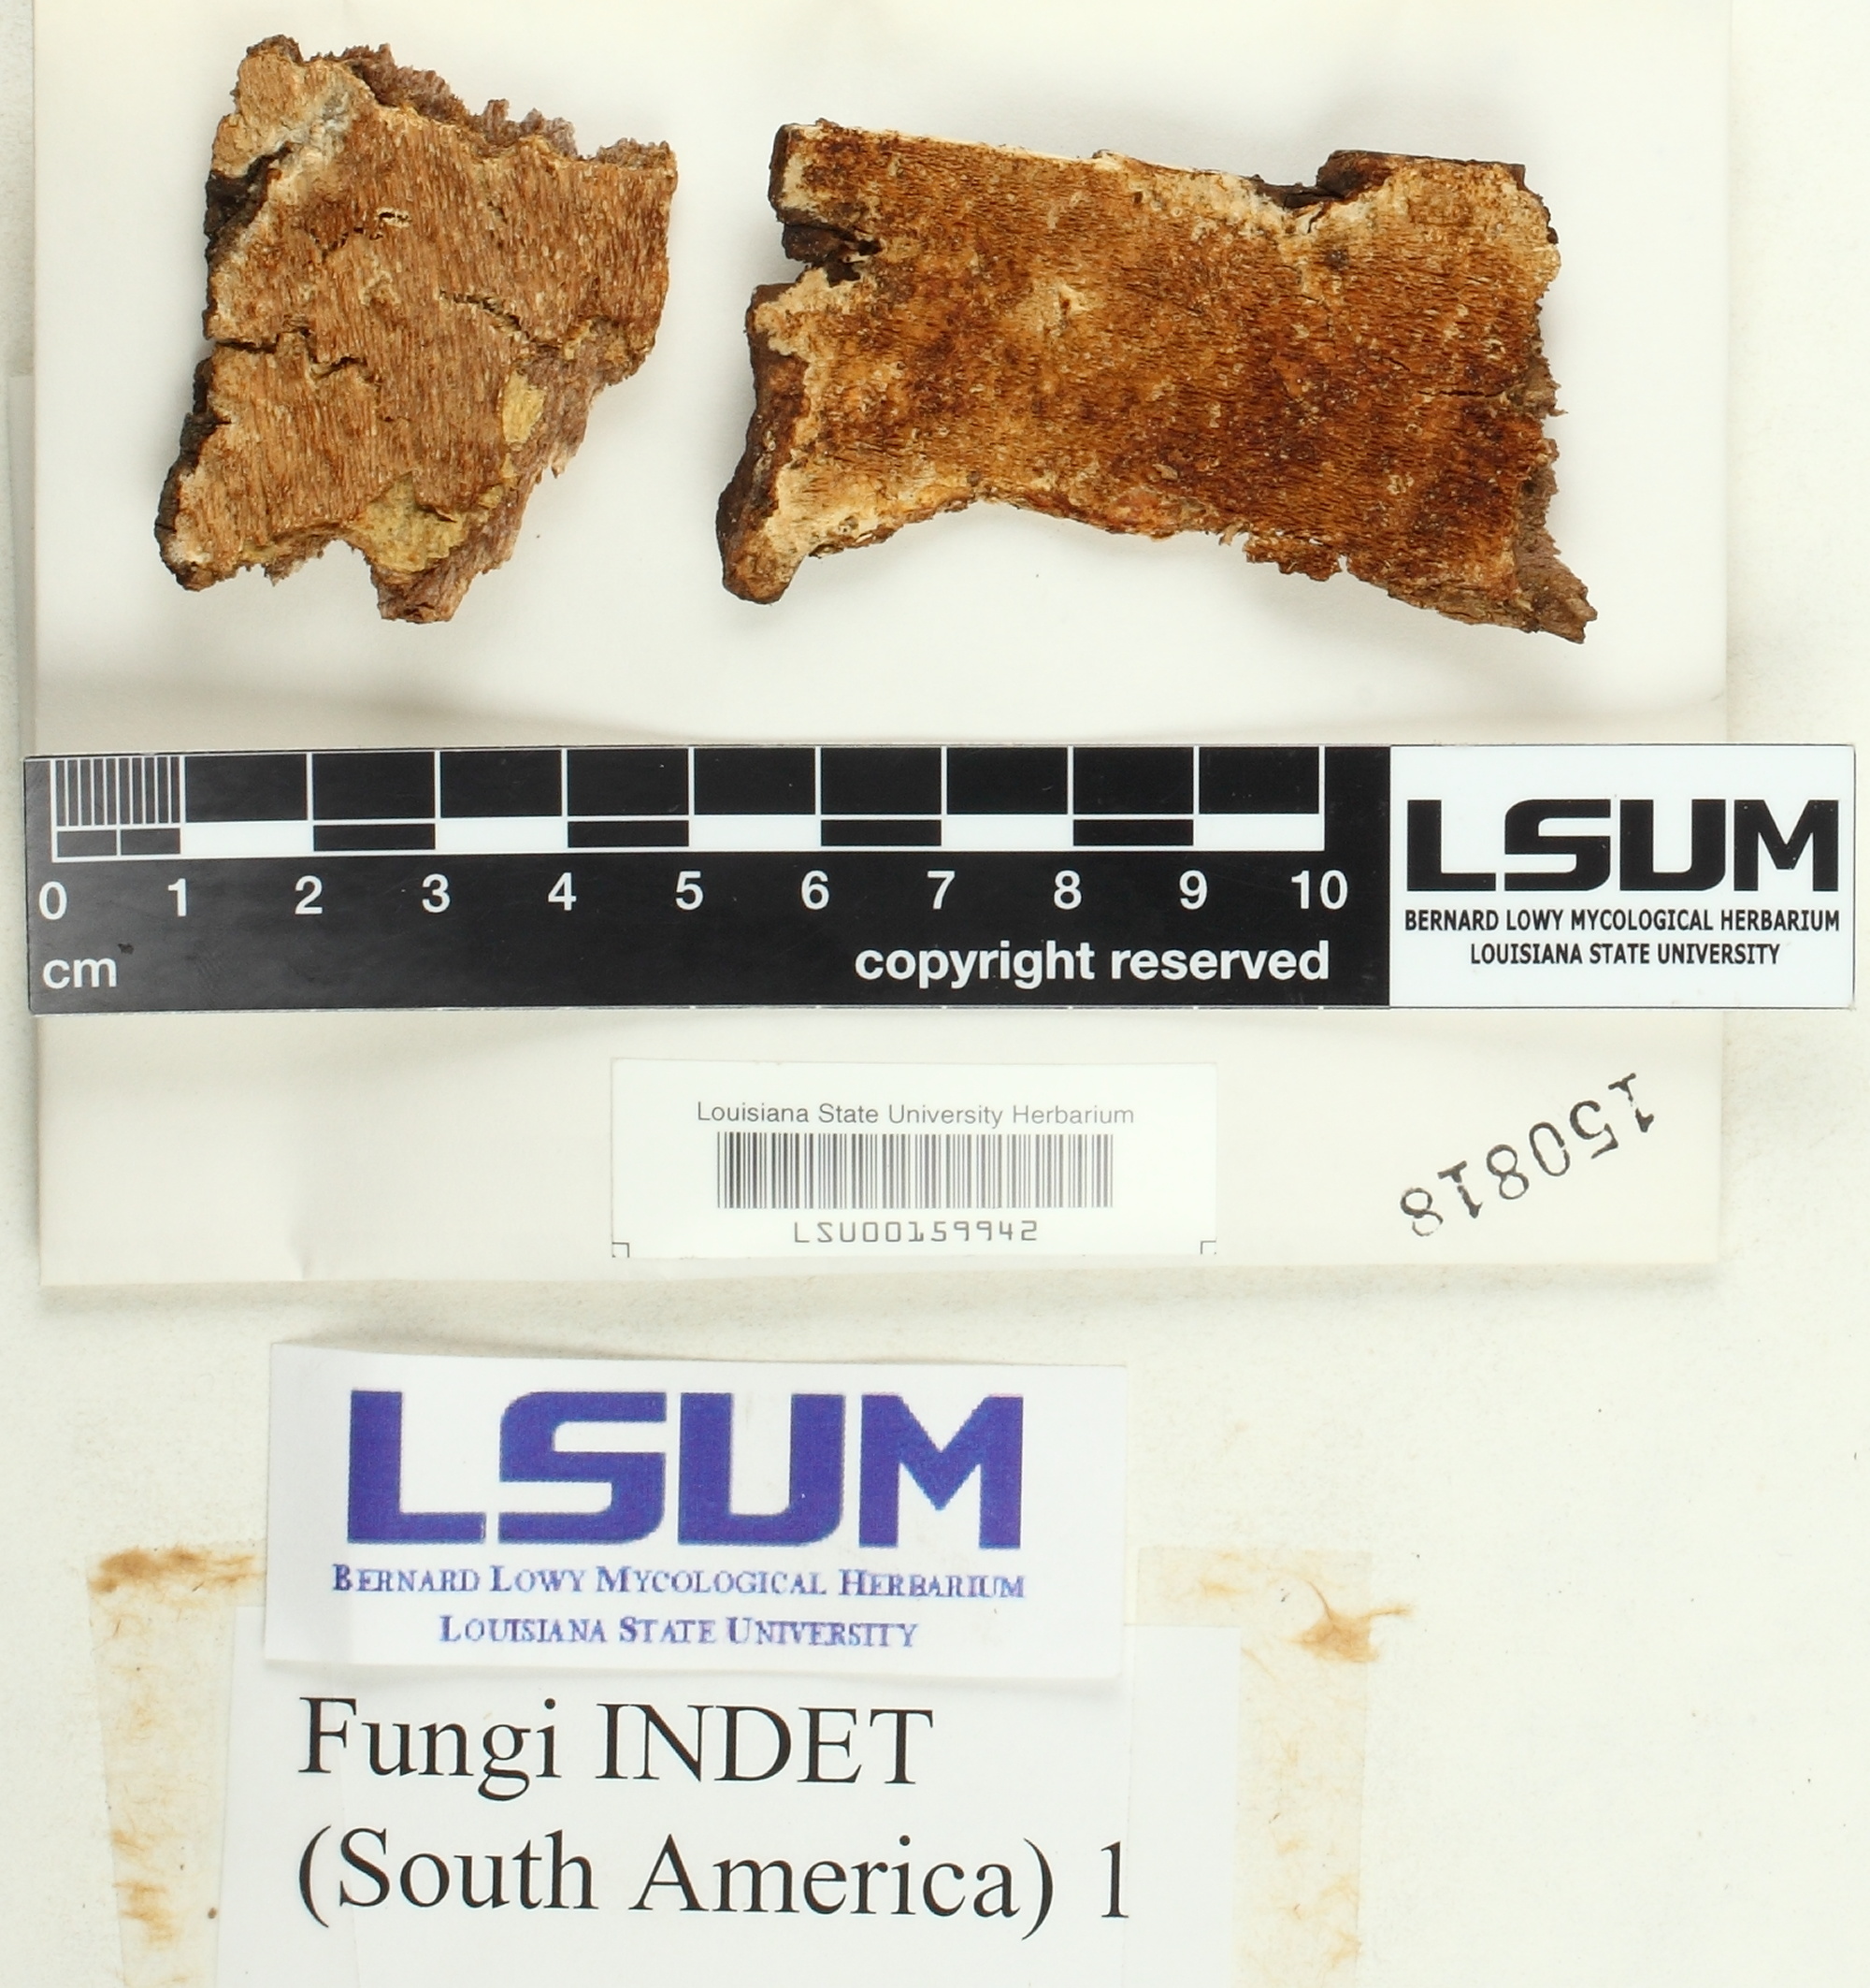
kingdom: Fungi
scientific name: Fungi
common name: Fungi
